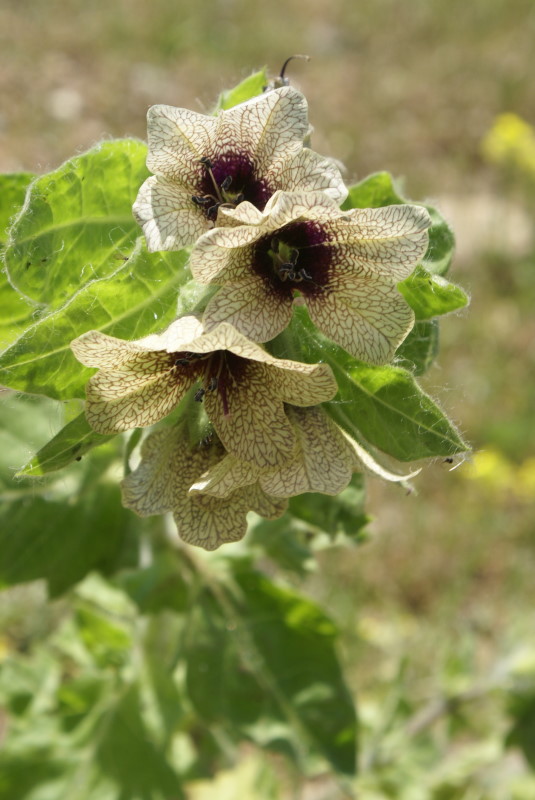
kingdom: Plantae
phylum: Tracheophyta
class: Magnoliopsida
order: Solanales
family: Solanaceae
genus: Hyoscyamus
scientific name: Hyoscyamus niger
